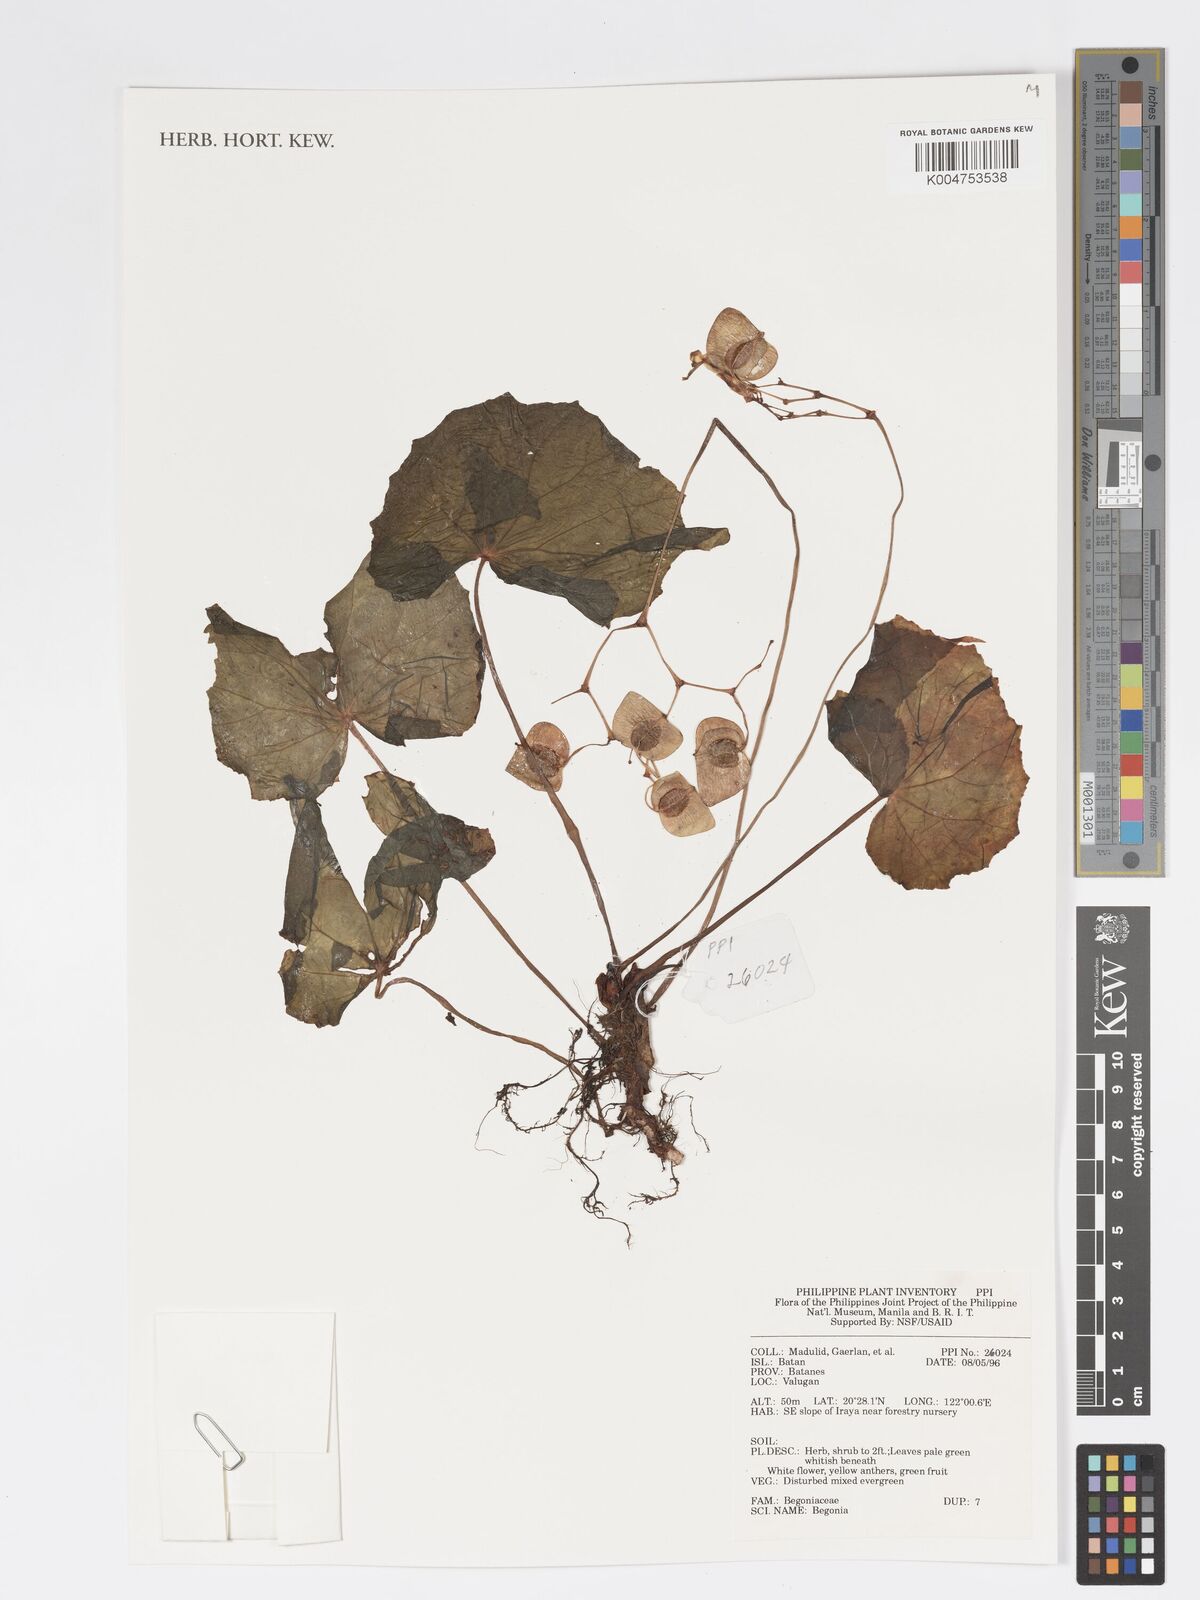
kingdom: Plantae
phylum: Tracheophyta
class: Magnoliopsida
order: Cucurbitales
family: Begoniaceae
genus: Begonia
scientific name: Begonia
